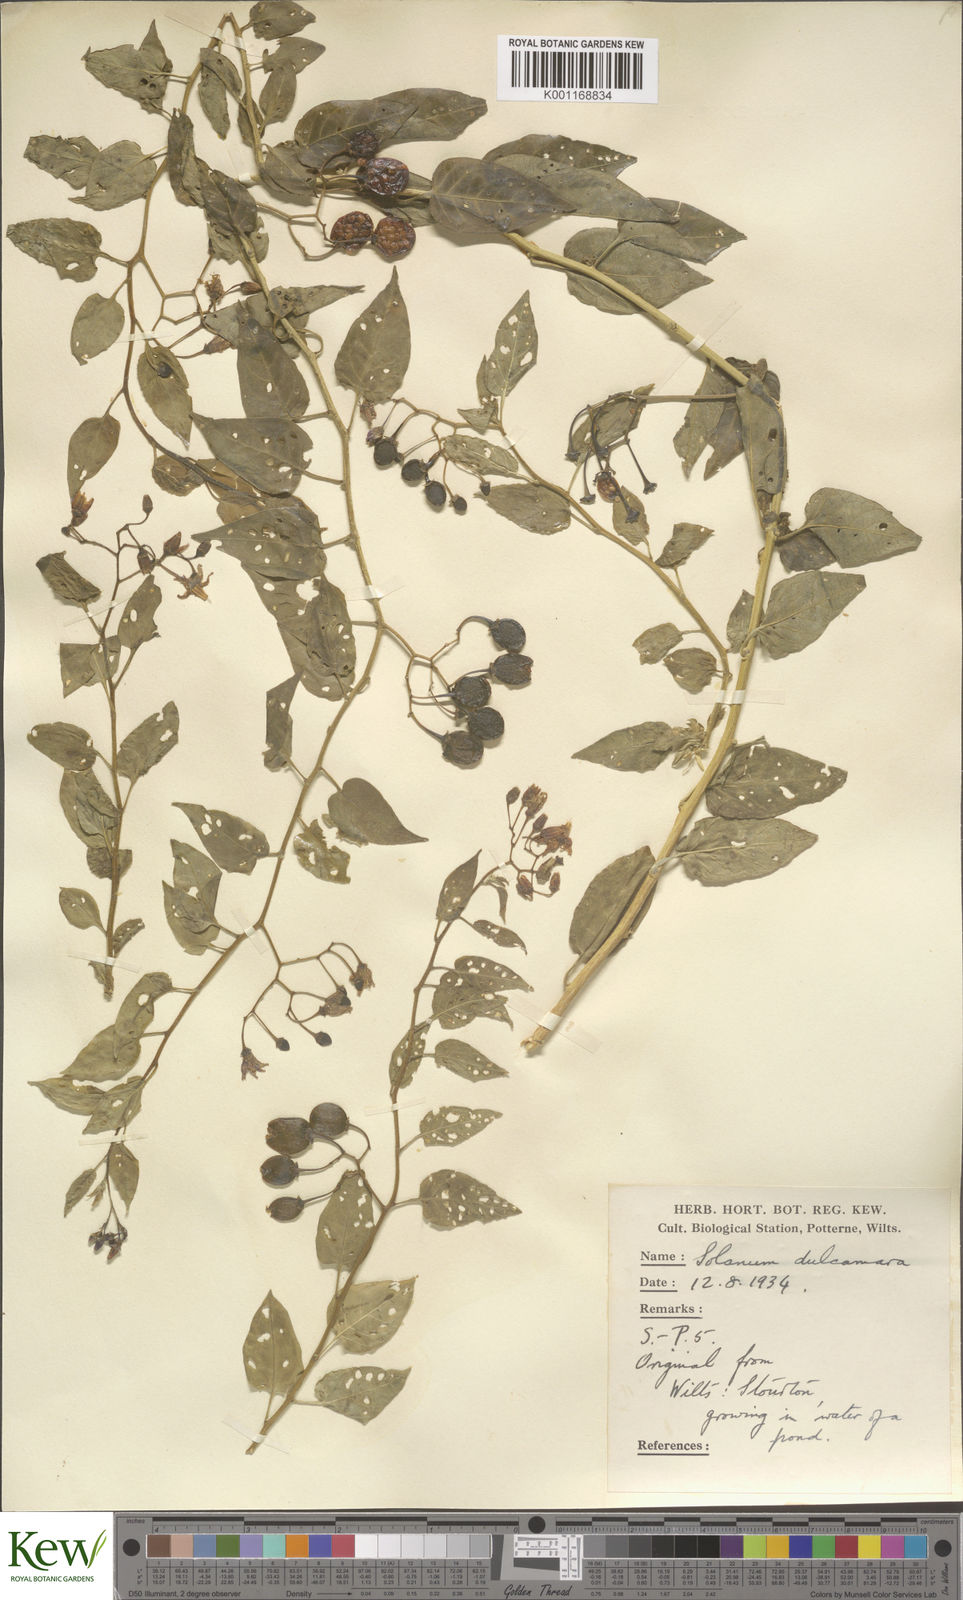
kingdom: Plantae
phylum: Tracheophyta
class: Magnoliopsida
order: Solanales
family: Solanaceae
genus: Solanum
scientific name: Solanum dulcamara
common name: Climbing nightshade
